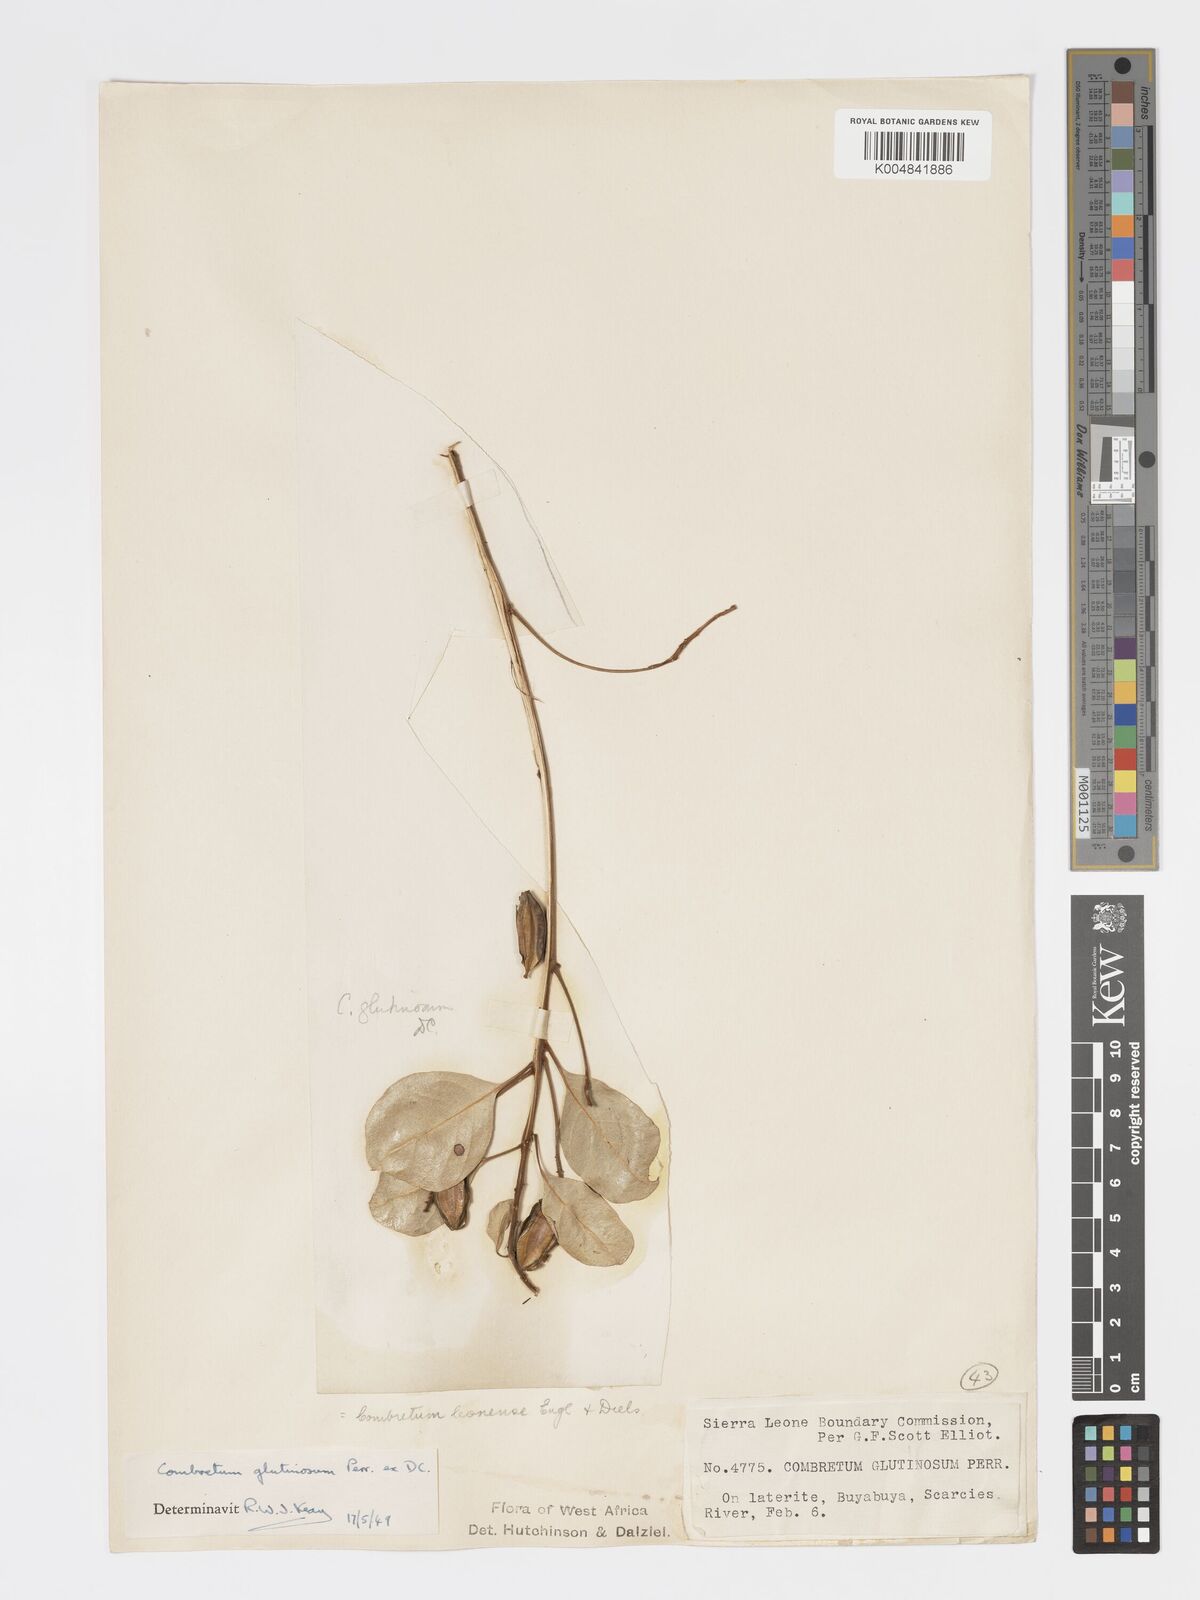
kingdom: Plantae
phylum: Tracheophyta
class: Magnoliopsida
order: Myrtales
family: Combretaceae
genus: Combretum
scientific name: Combretum
